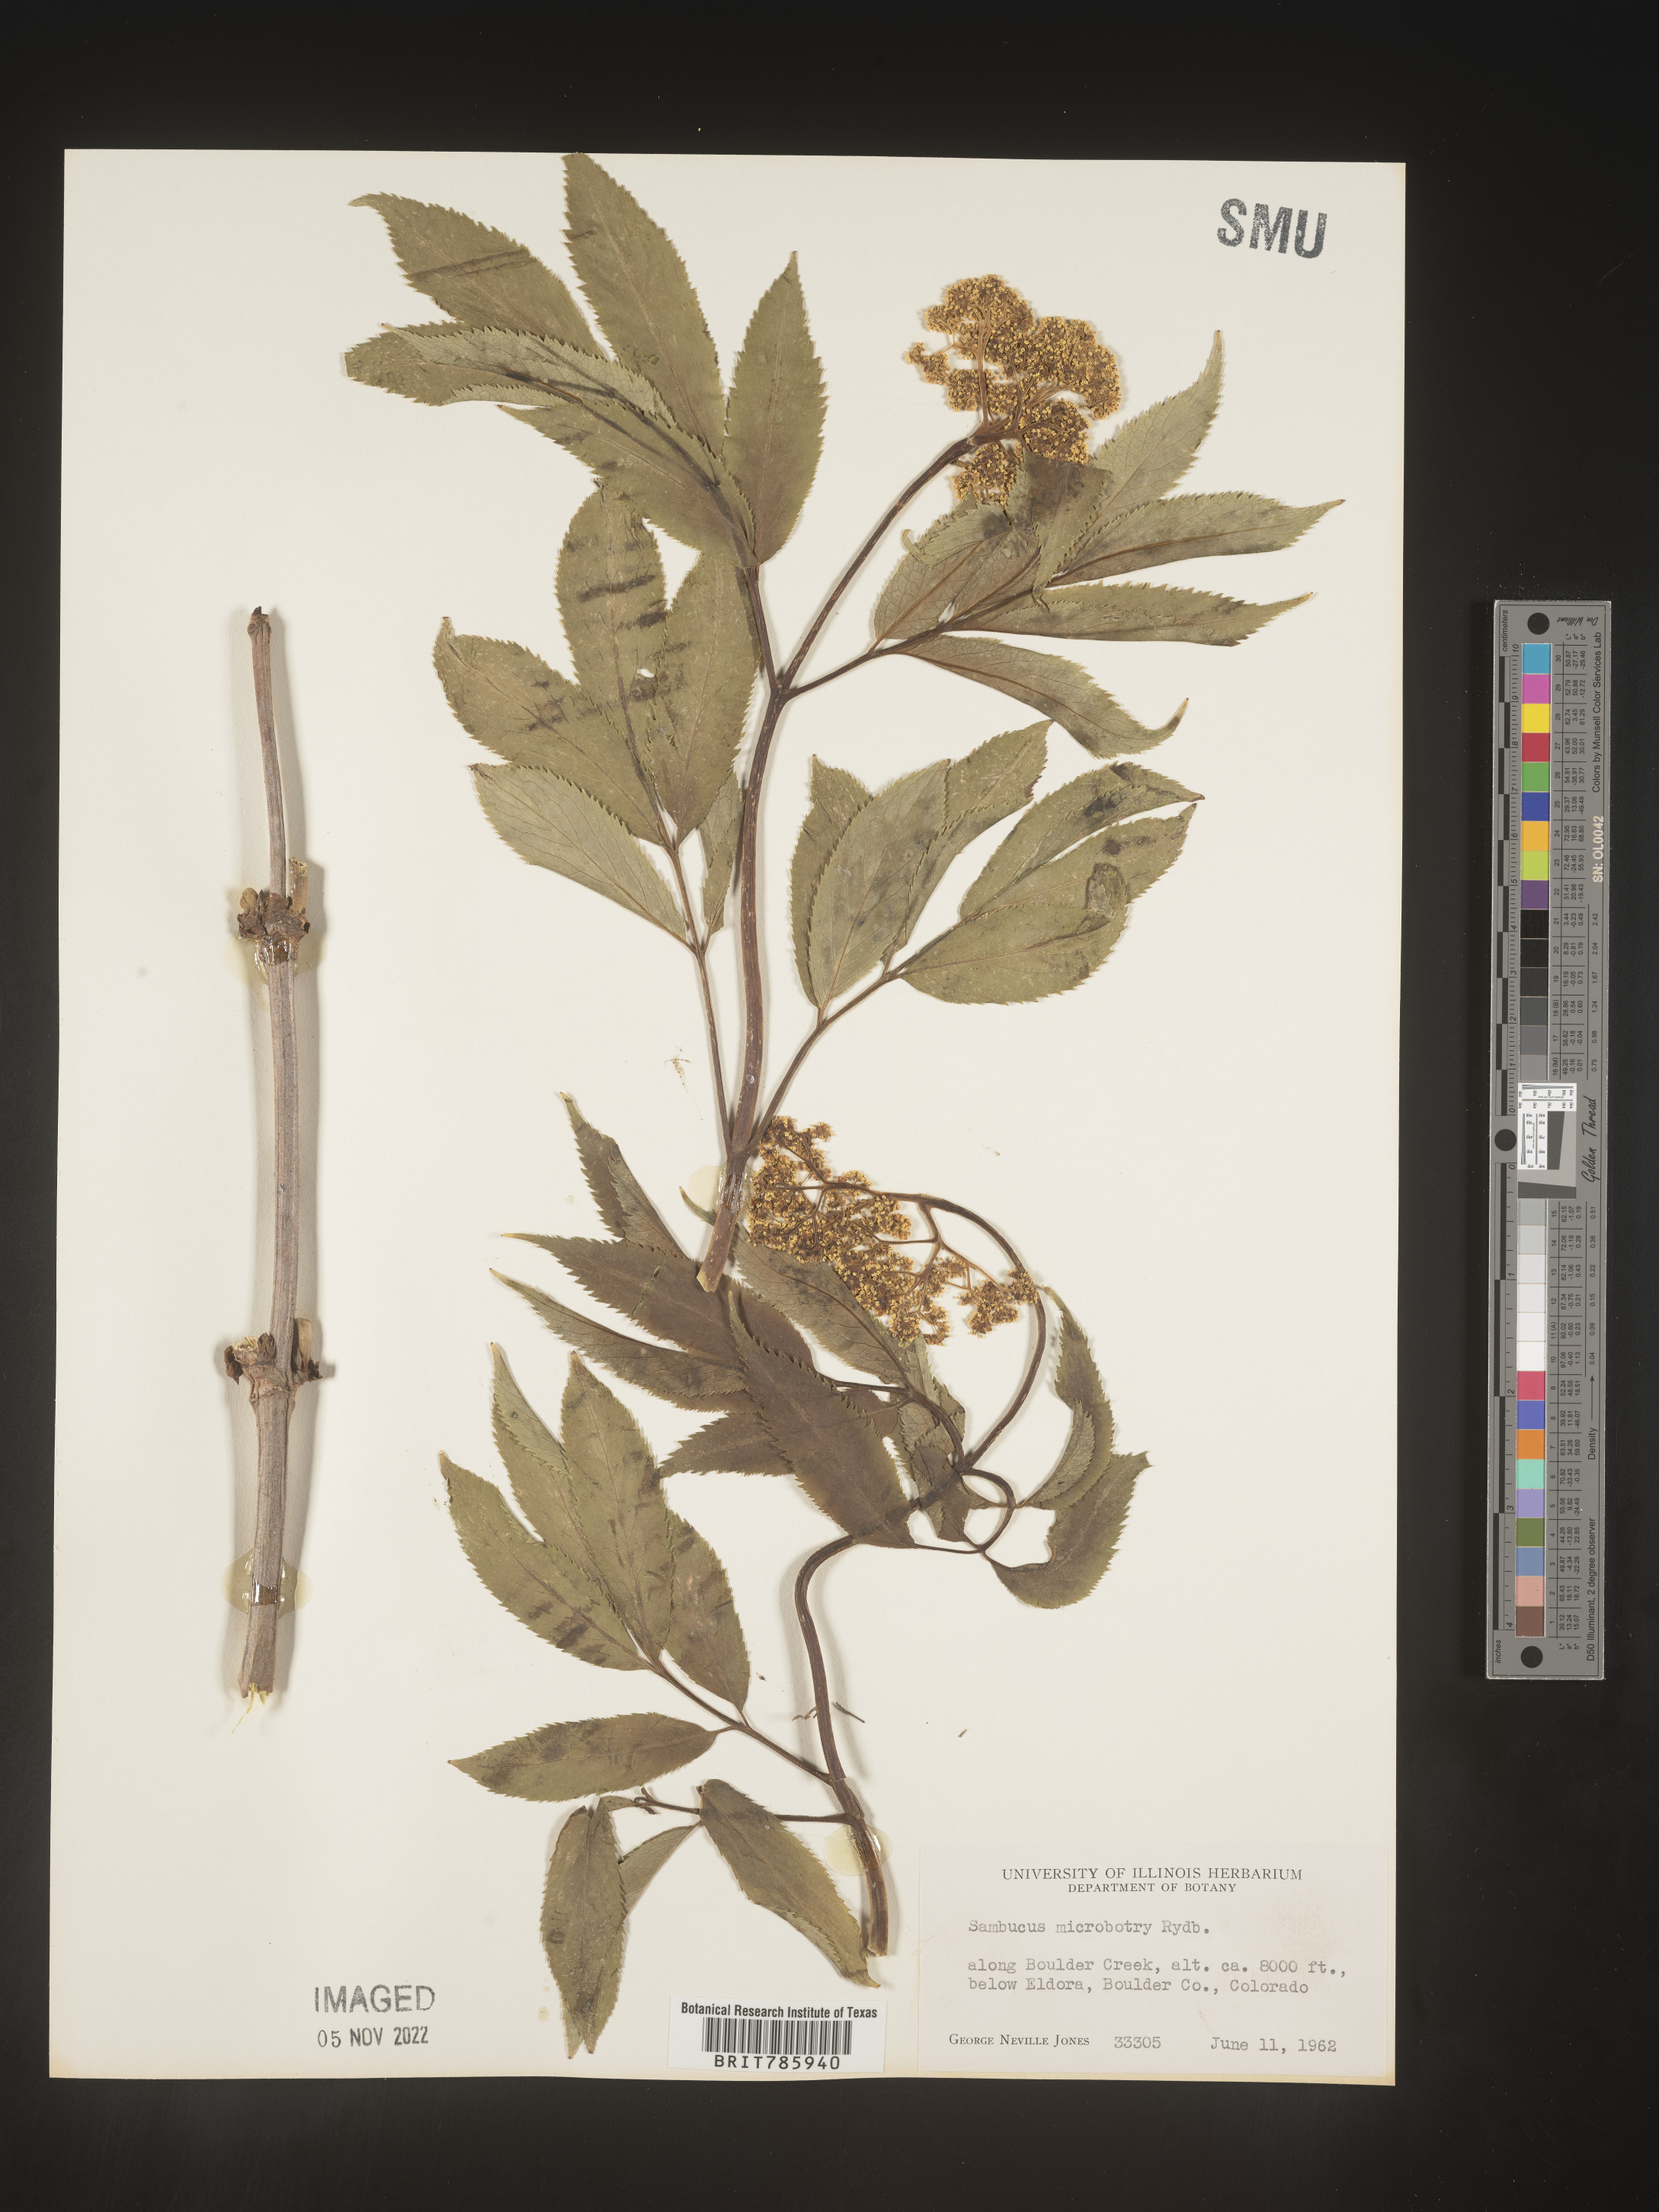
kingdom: Plantae
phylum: Tracheophyta
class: Magnoliopsida
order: Dipsacales
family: Viburnaceae
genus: Sambucus
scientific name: Sambucus
